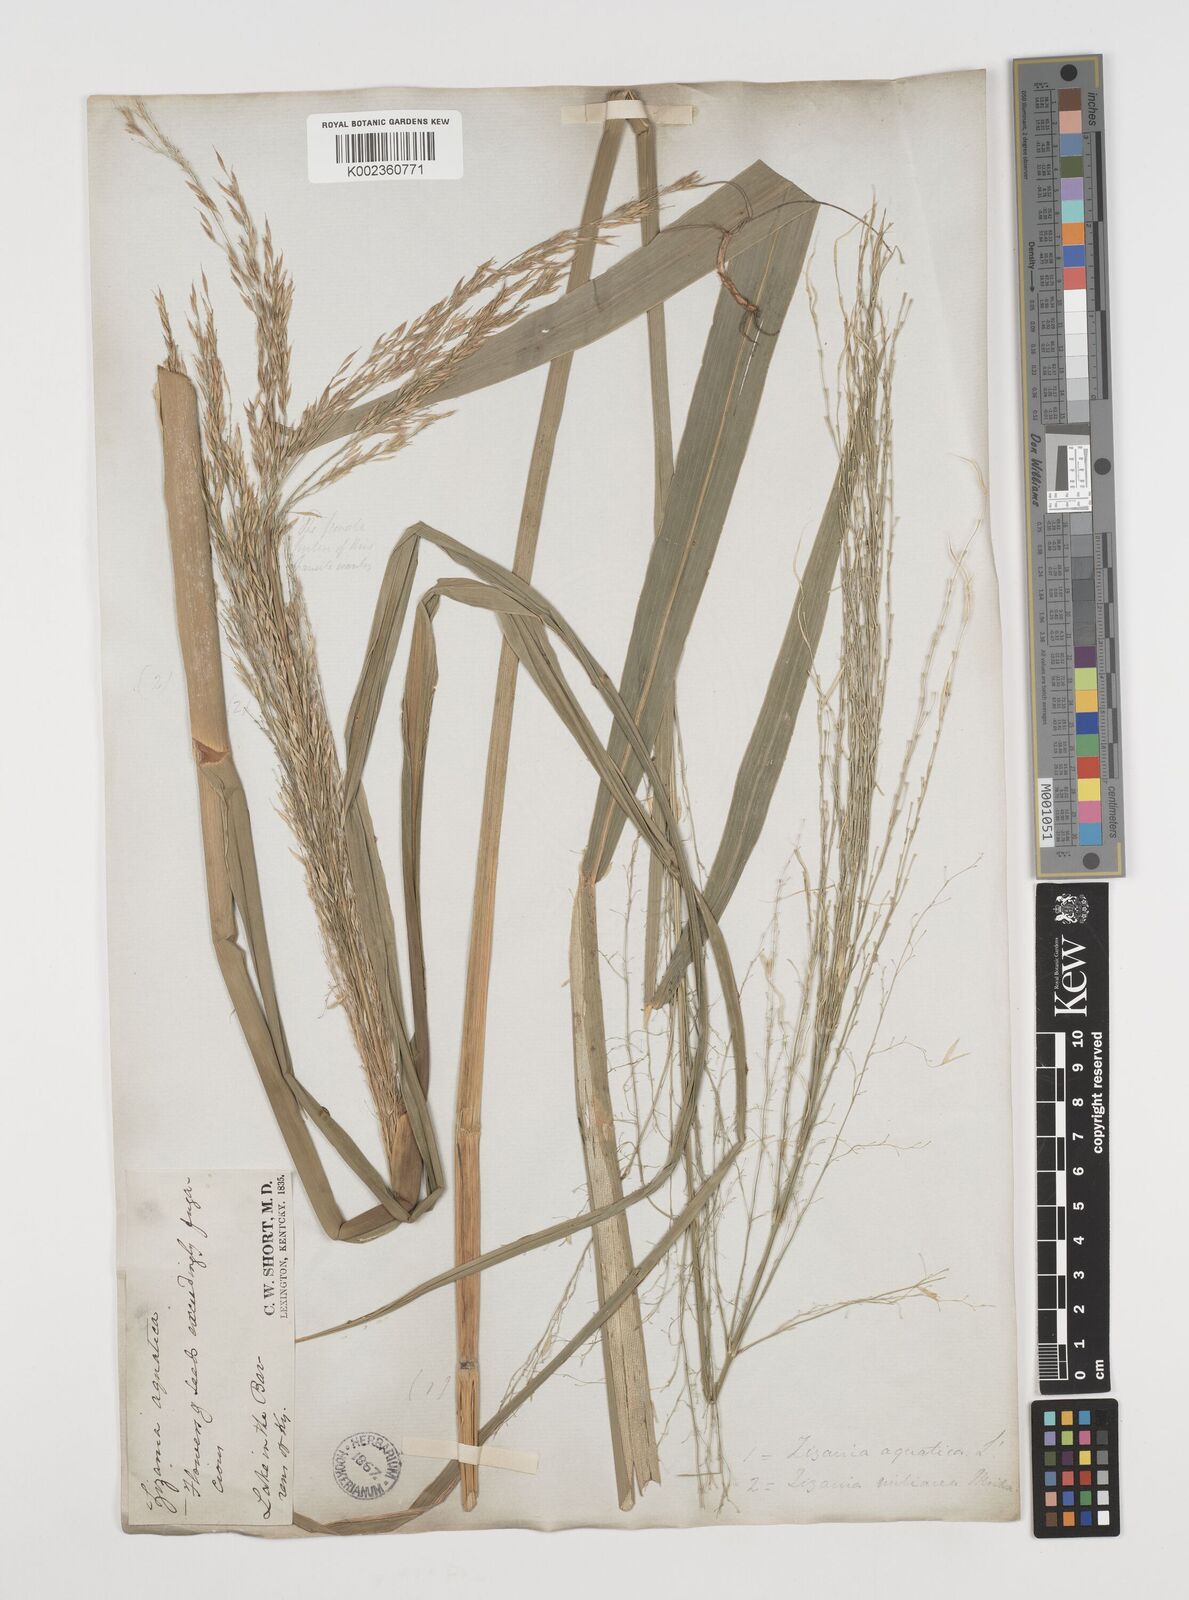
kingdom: Plantae
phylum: Tracheophyta
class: Liliopsida
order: Poales
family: Poaceae
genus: Zizania
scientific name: Zizania aquatica
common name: Annual wildrice
